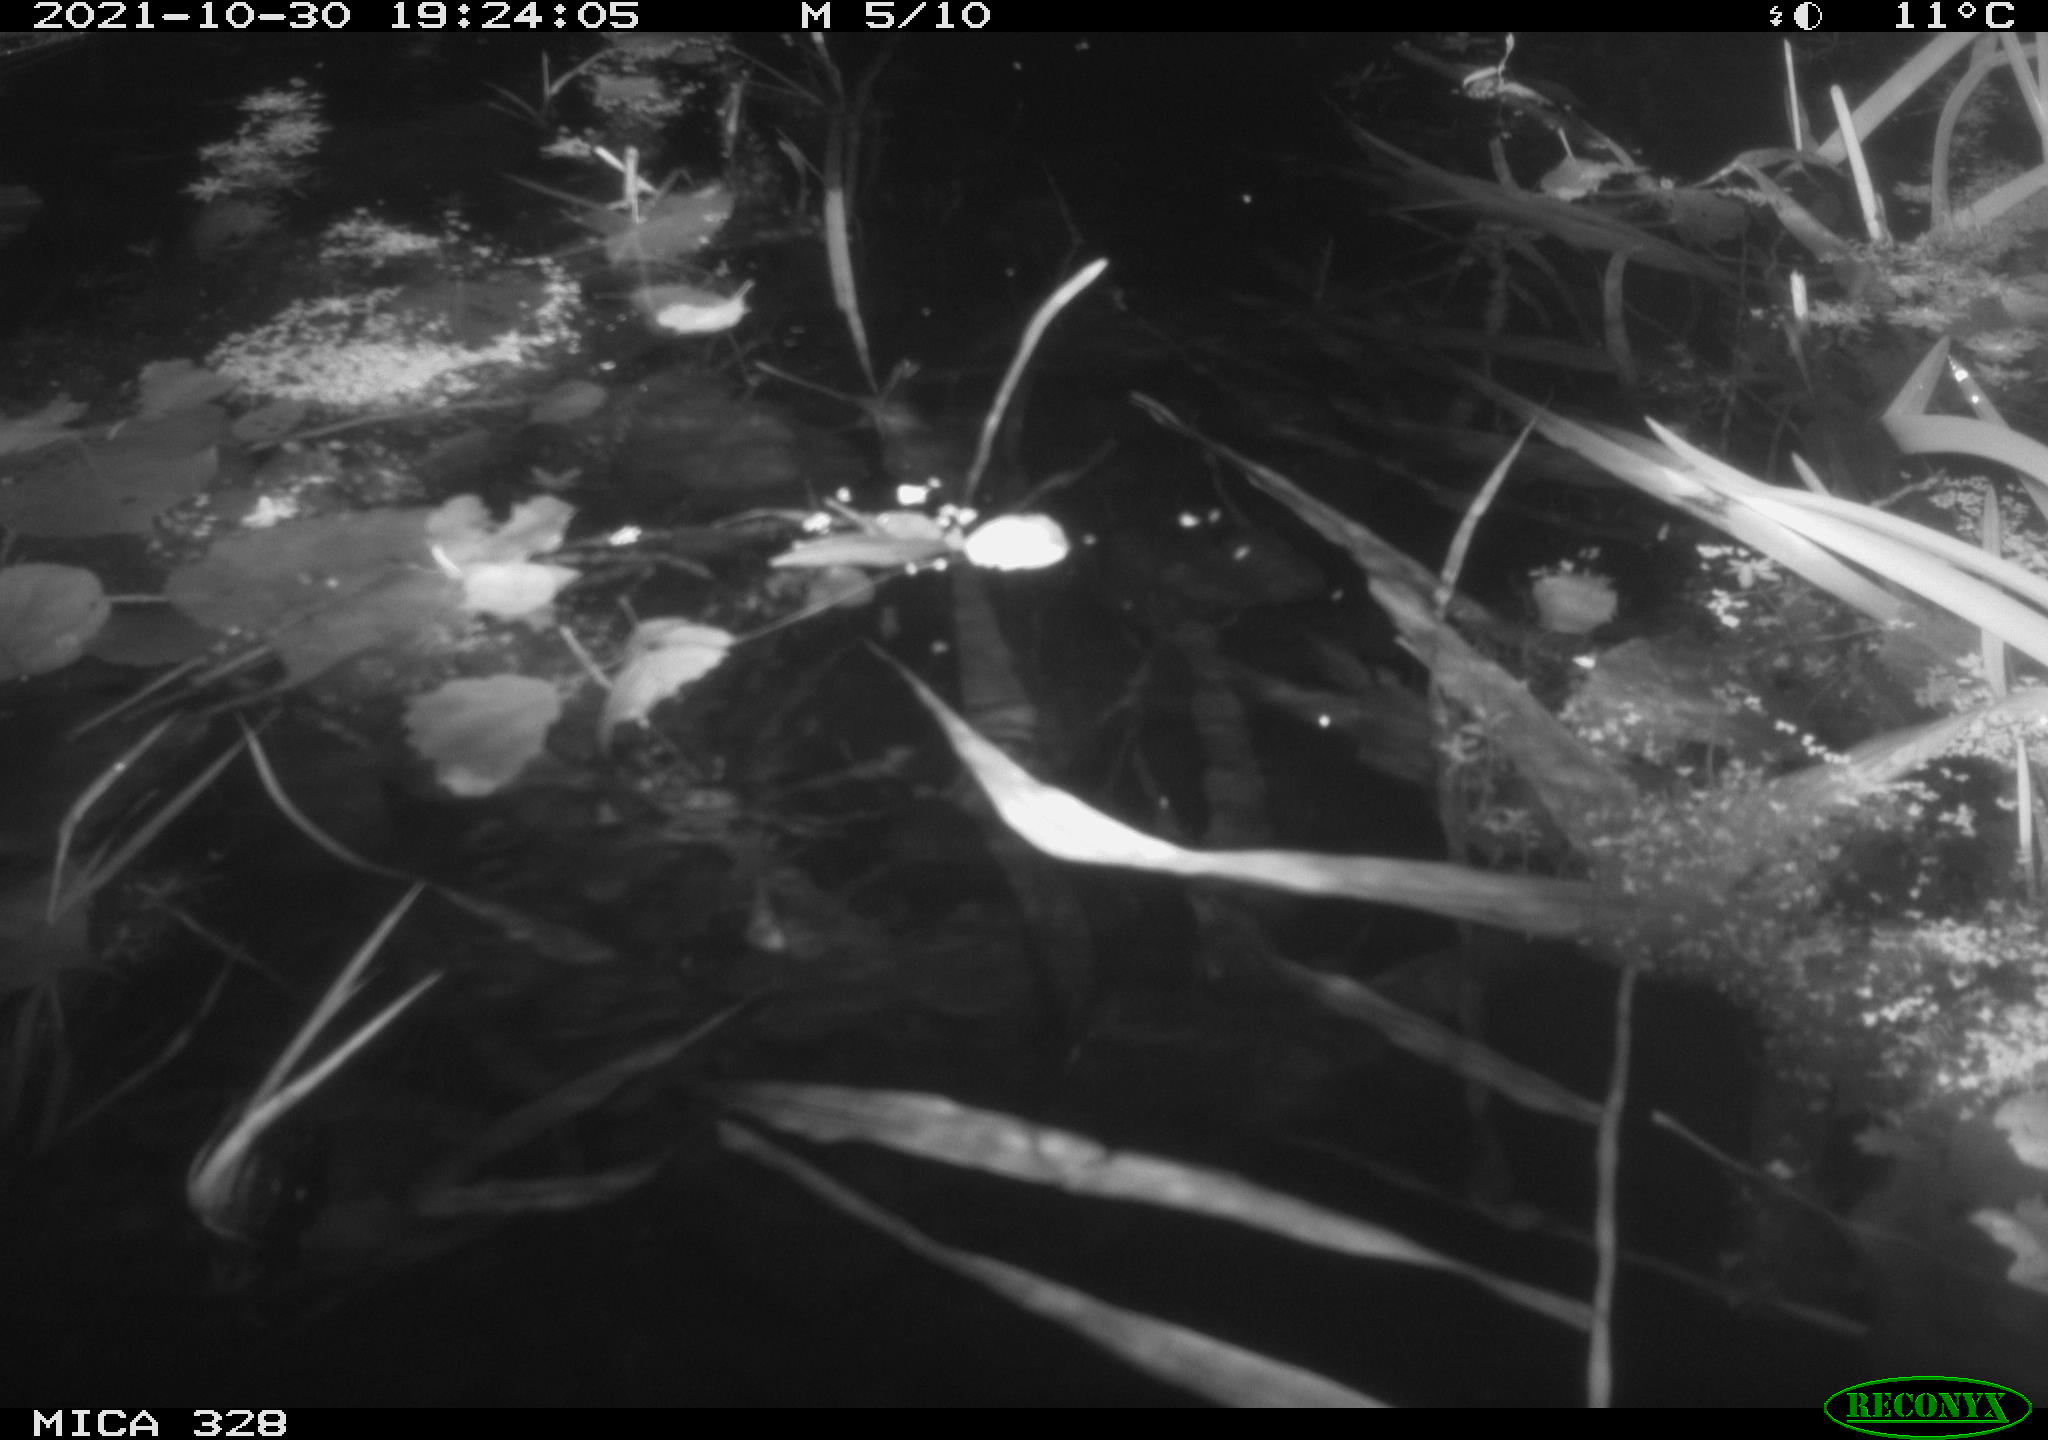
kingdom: Animalia
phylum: Chordata
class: Mammalia
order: Rodentia
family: Cricetidae
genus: Ondatra
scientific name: Ondatra zibethicus
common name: Muskrat
